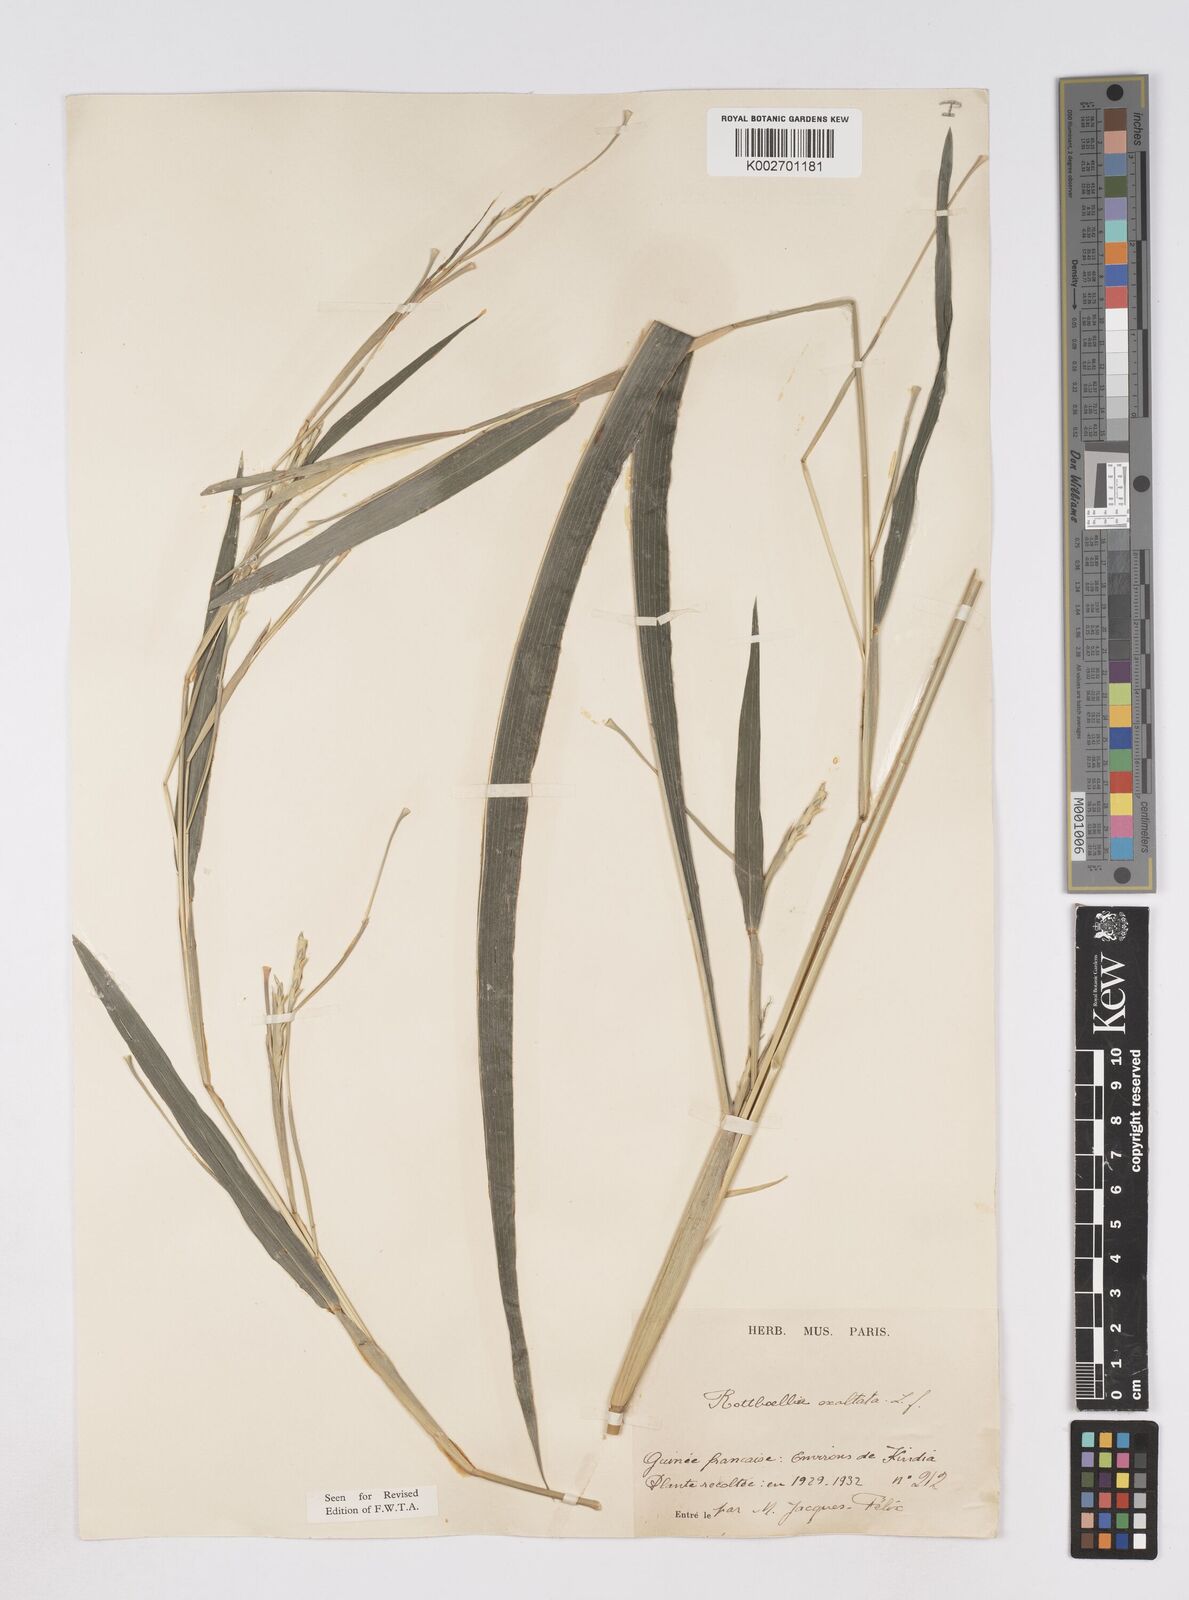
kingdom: Plantae
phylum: Tracheophyta
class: Liliopsida
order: Poales
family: Poaceae
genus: Ophiuros
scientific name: Ophiuros exaltatus
